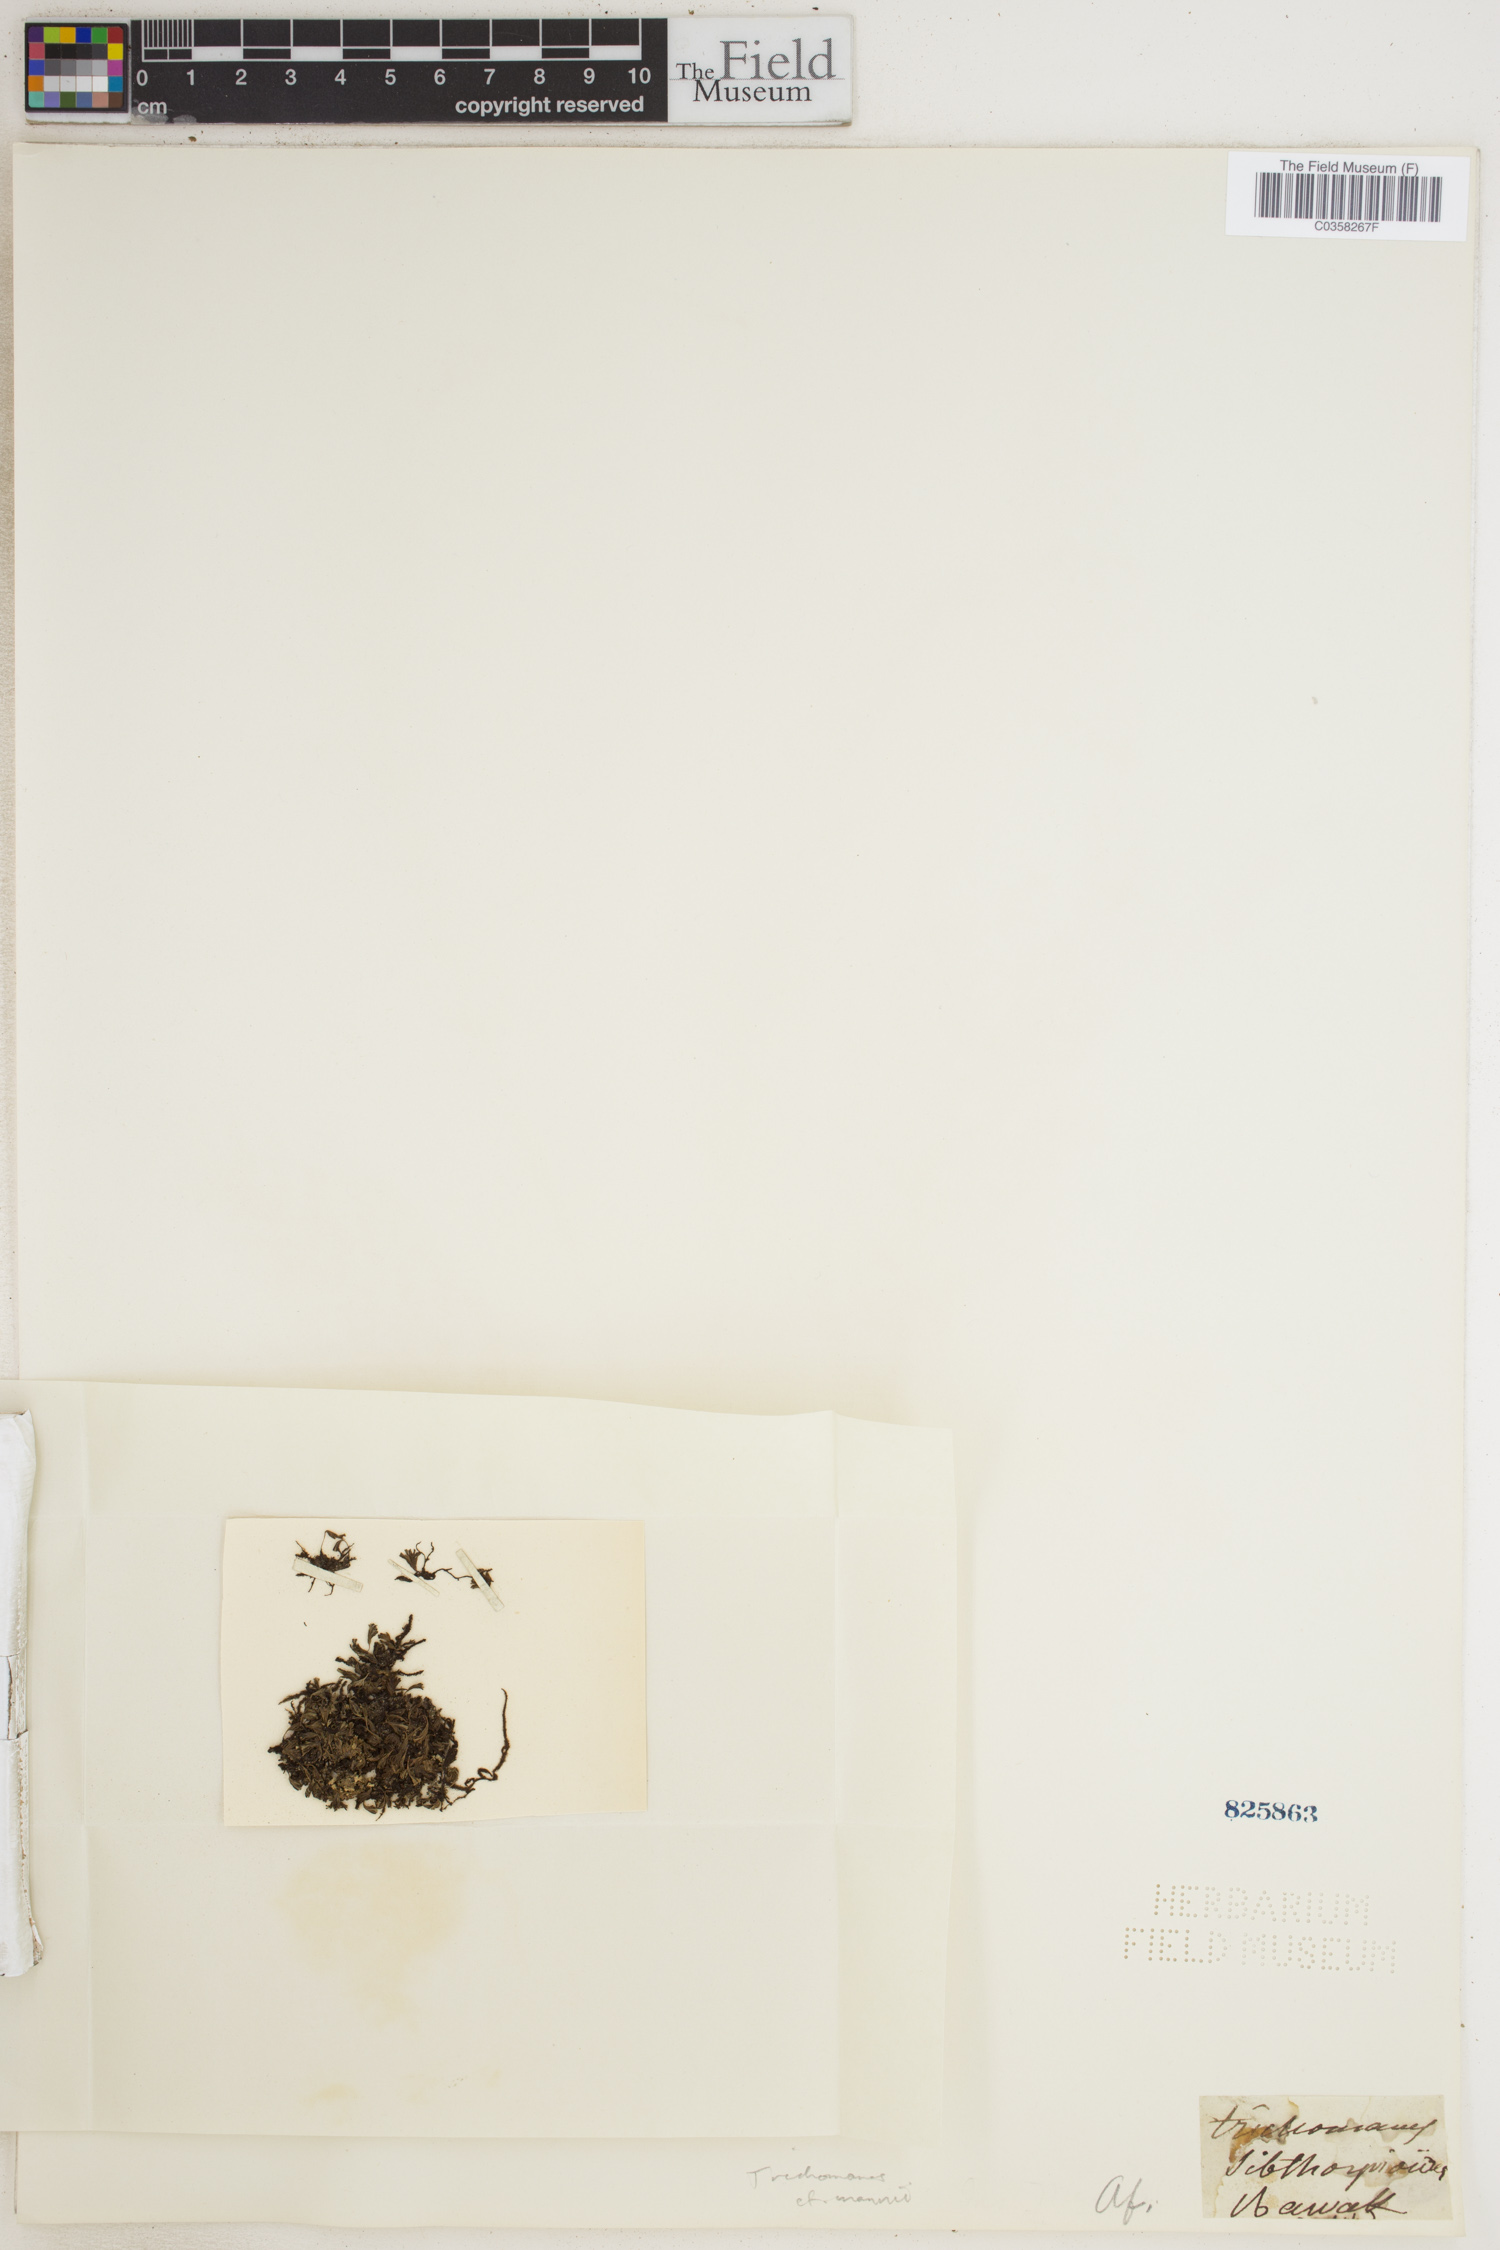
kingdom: Plantae
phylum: Tracheophyta
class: Polypodiopsida
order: Hymenophyllales
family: Hymenophyllaceae
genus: Crepidomanes
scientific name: Crepidomanes parvulum
